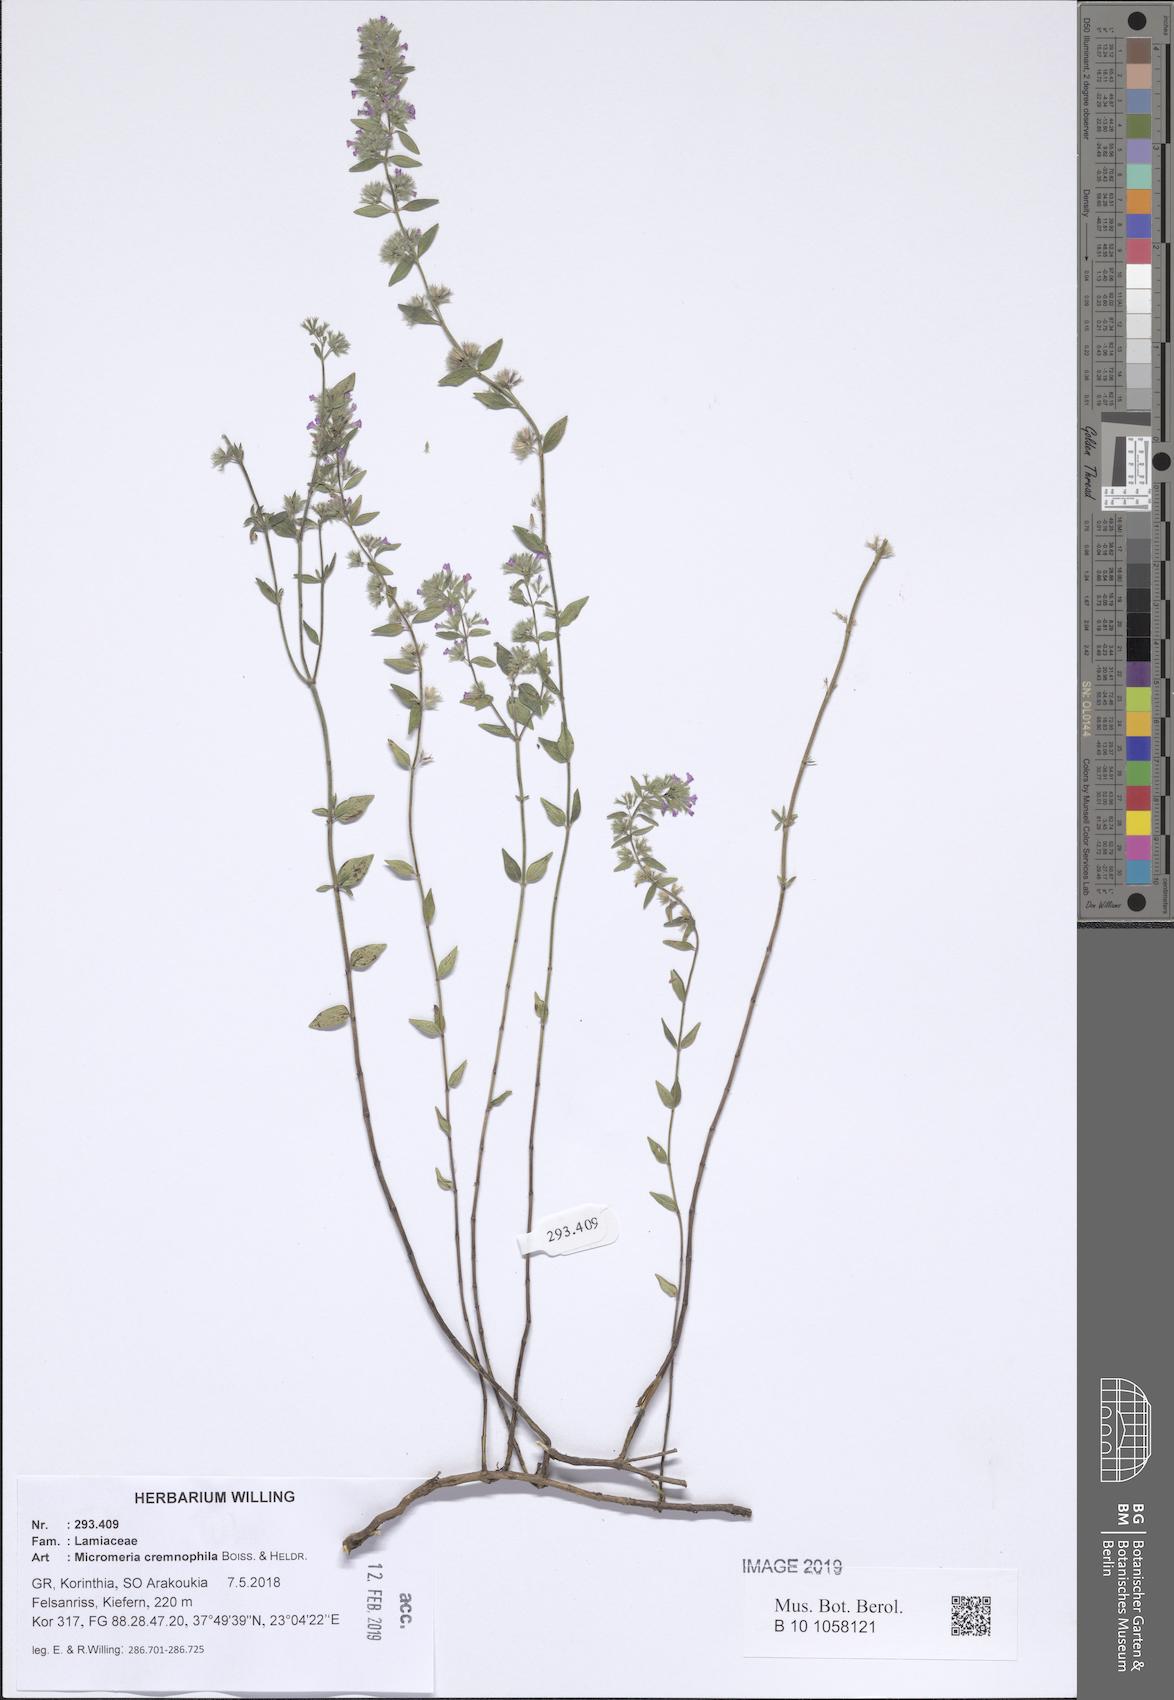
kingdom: Plantae
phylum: Tracheophyta
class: Magnoliopsida
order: Lamiales
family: Lamiaceae
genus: Micromeria
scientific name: Micromeria graeca
